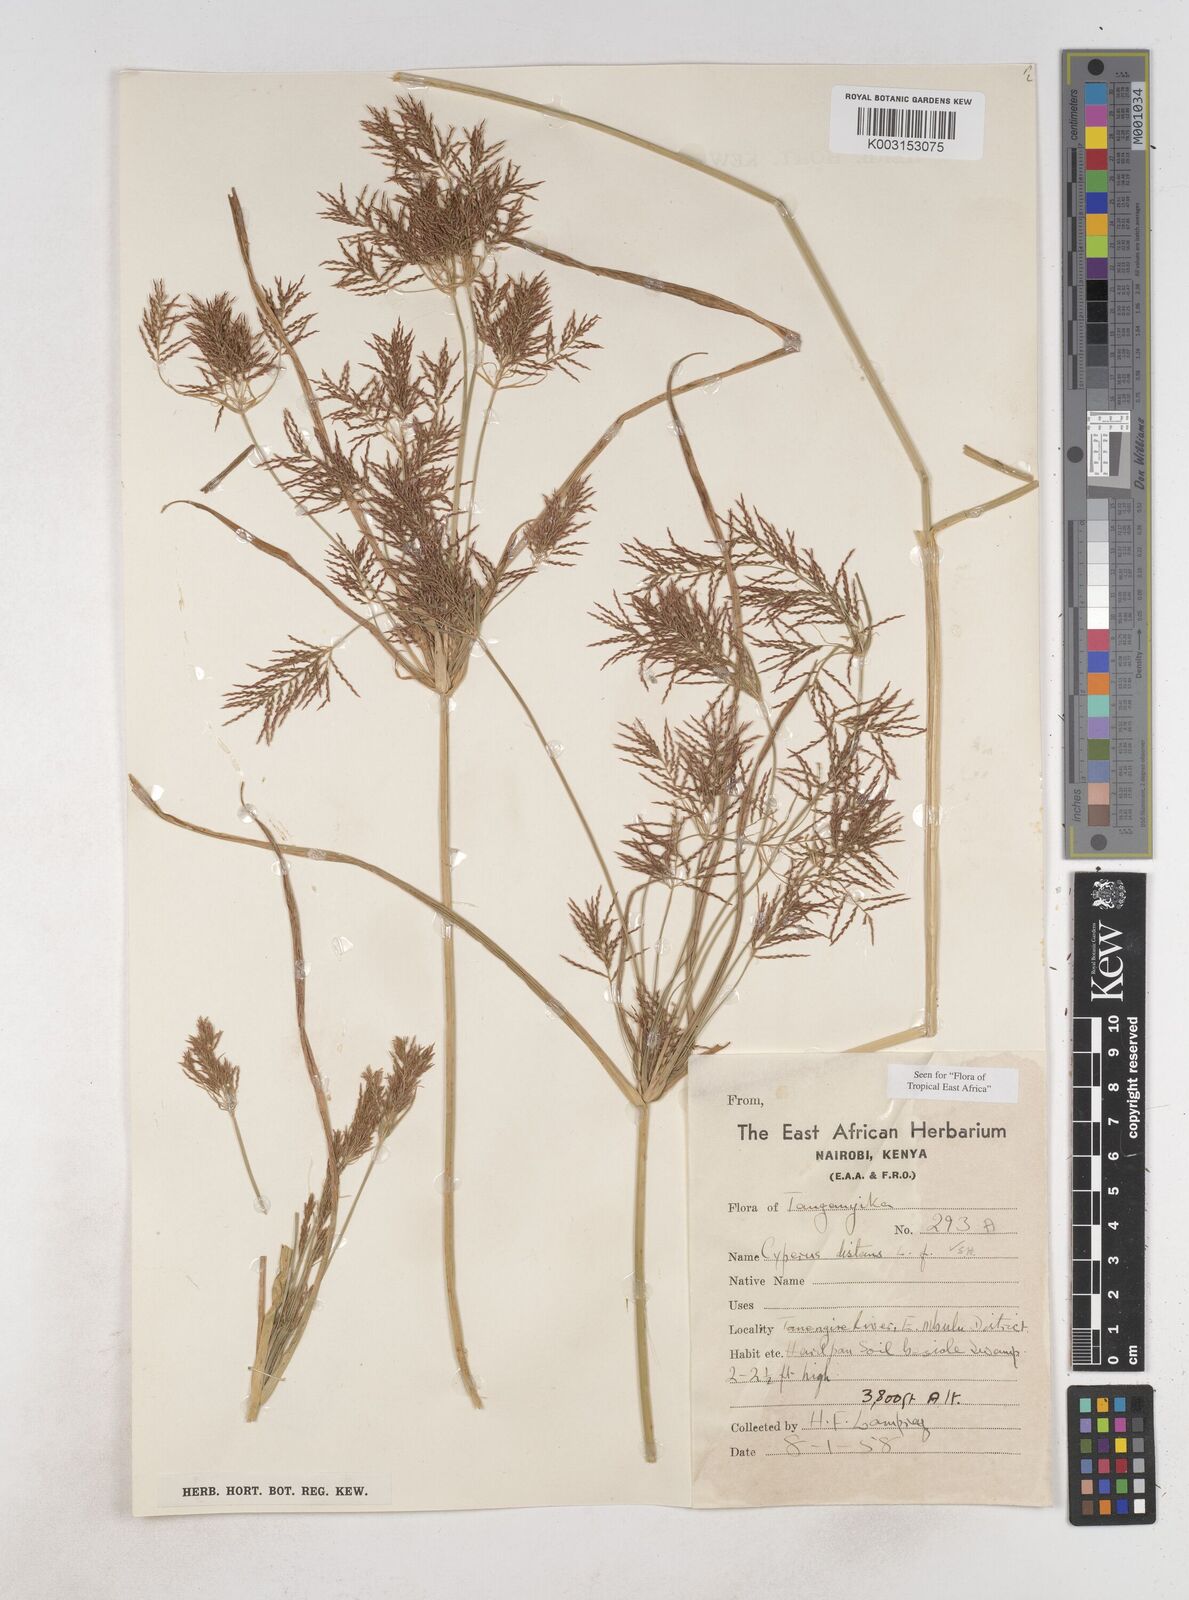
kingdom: Plantae
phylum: Tracheophyta
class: Liliopsida
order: Poales
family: Cyperaceae
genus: Cyperus
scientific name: Cyperus distans
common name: Slender cyperus
